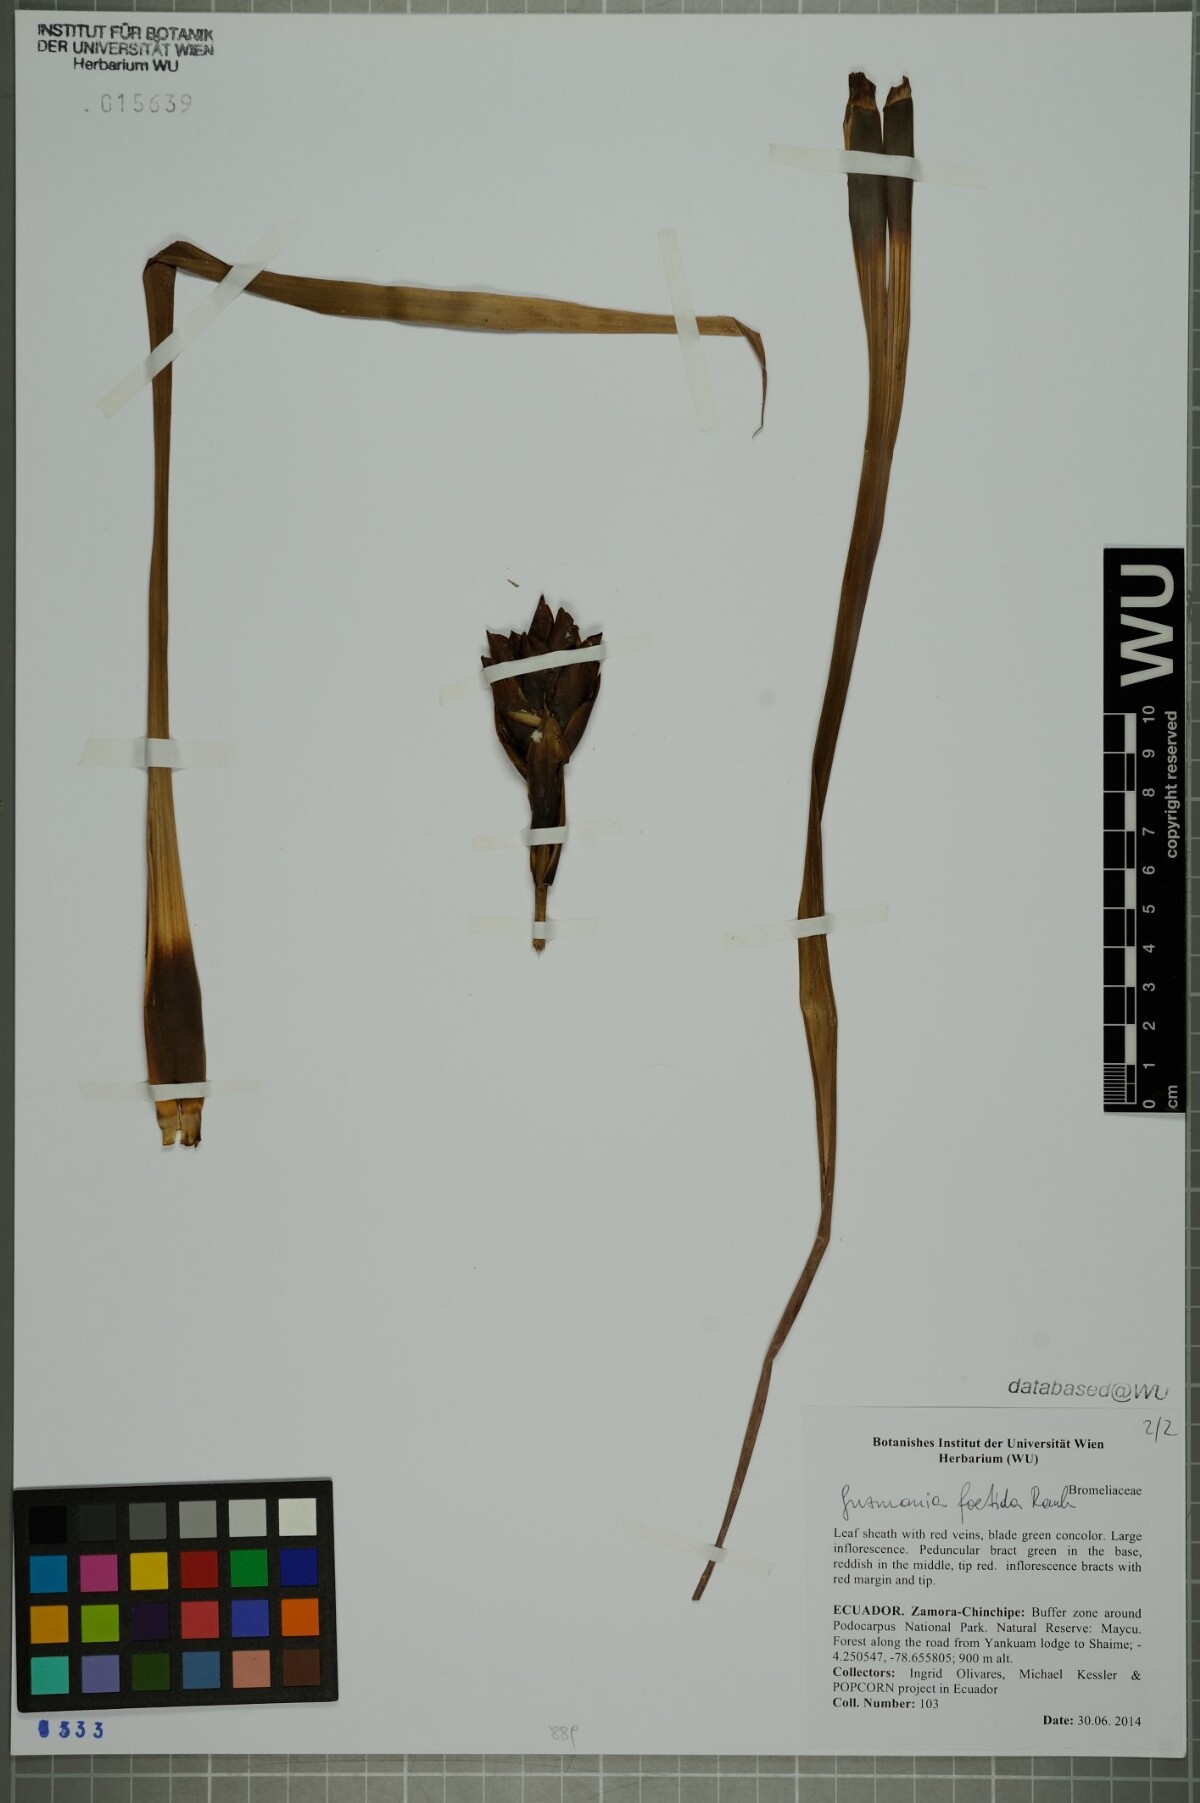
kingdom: Plantae
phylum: Tracheophyta
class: Liliopsida
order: Poales
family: Bromeliaceae
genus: Guzmania
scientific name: Guzmania foetida
